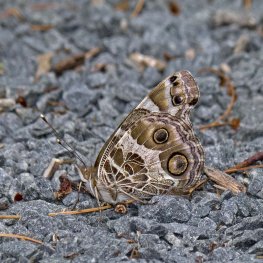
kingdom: Animalia
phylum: Arthropoda
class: Insecta
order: Lepidoptera
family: Nymphalidae
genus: Vanessa
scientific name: Vanessa virginiensis
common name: American Lady
